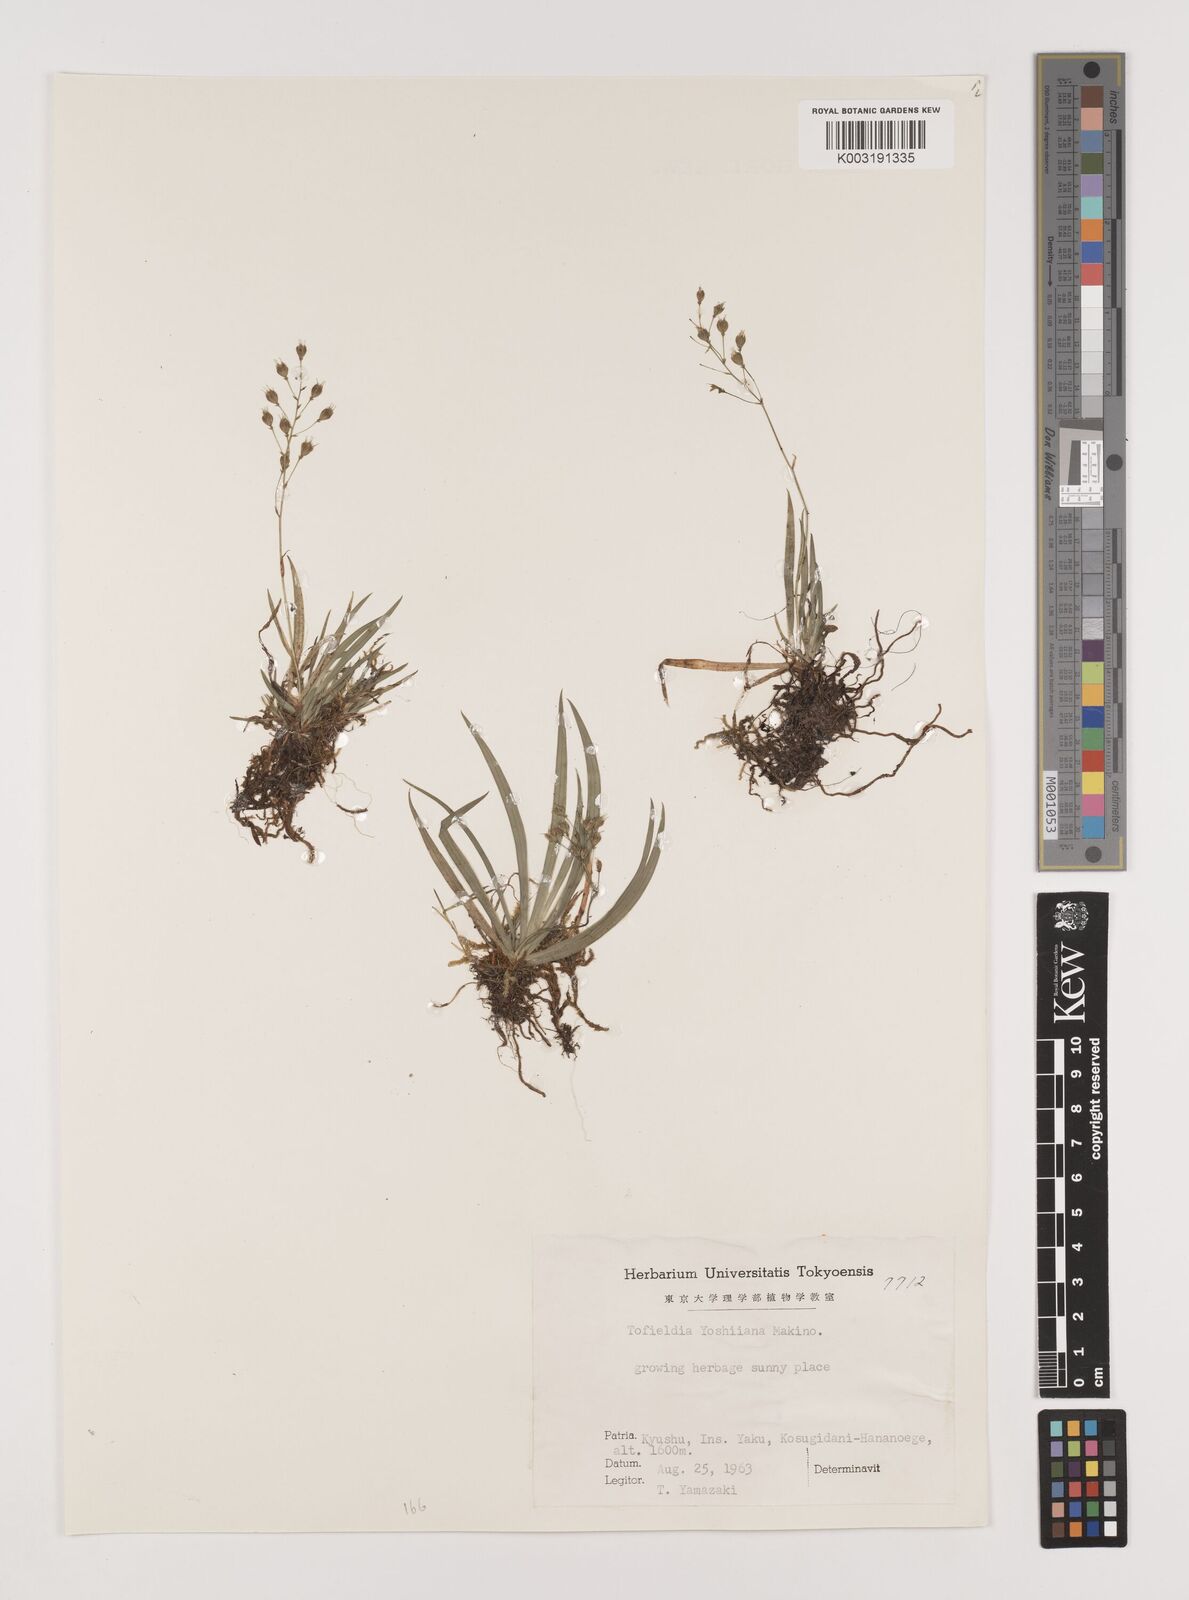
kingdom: Plantae
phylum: Tracheophyta
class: Liliopsida
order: Alismatales
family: Tofieldiaceae
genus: Tofieldia
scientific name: Tofieldia yoshiiana
